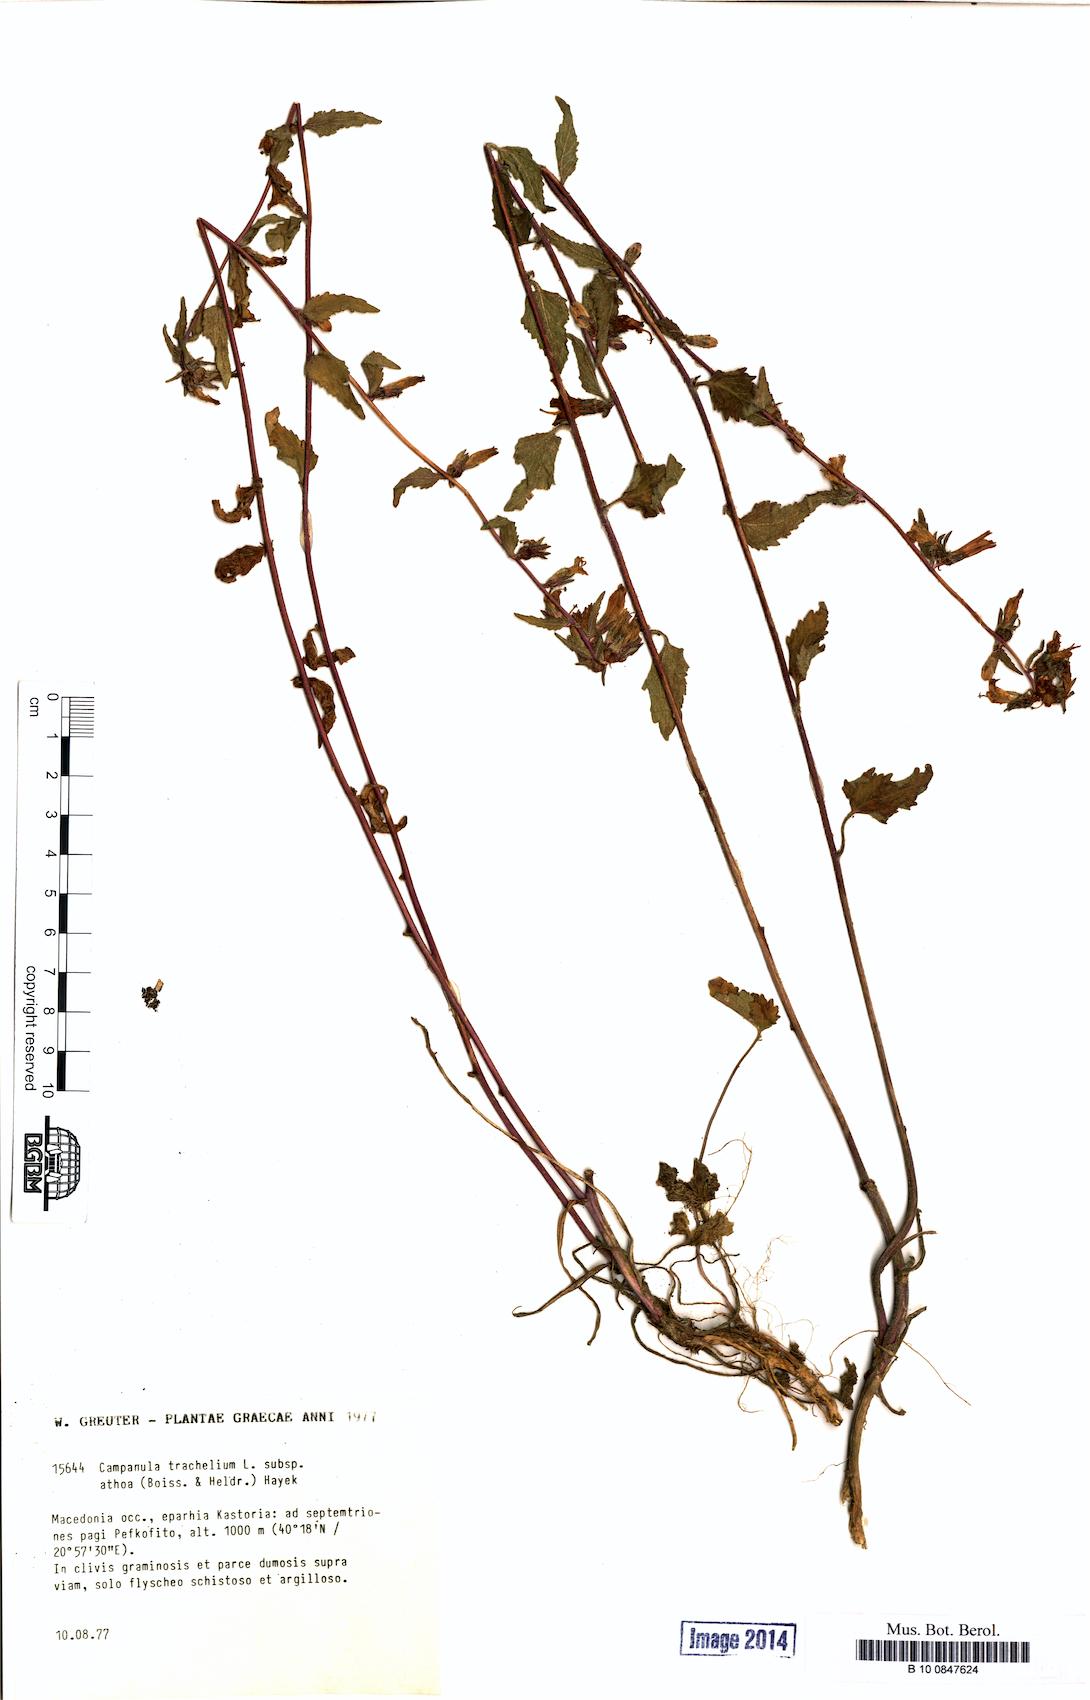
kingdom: Plantae
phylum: Tracheophyta
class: Magnoliopsida
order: Asterales
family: Campanulaceae
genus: Campanula
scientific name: Campanula trachelium
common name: Nettle-leaved bellflower
